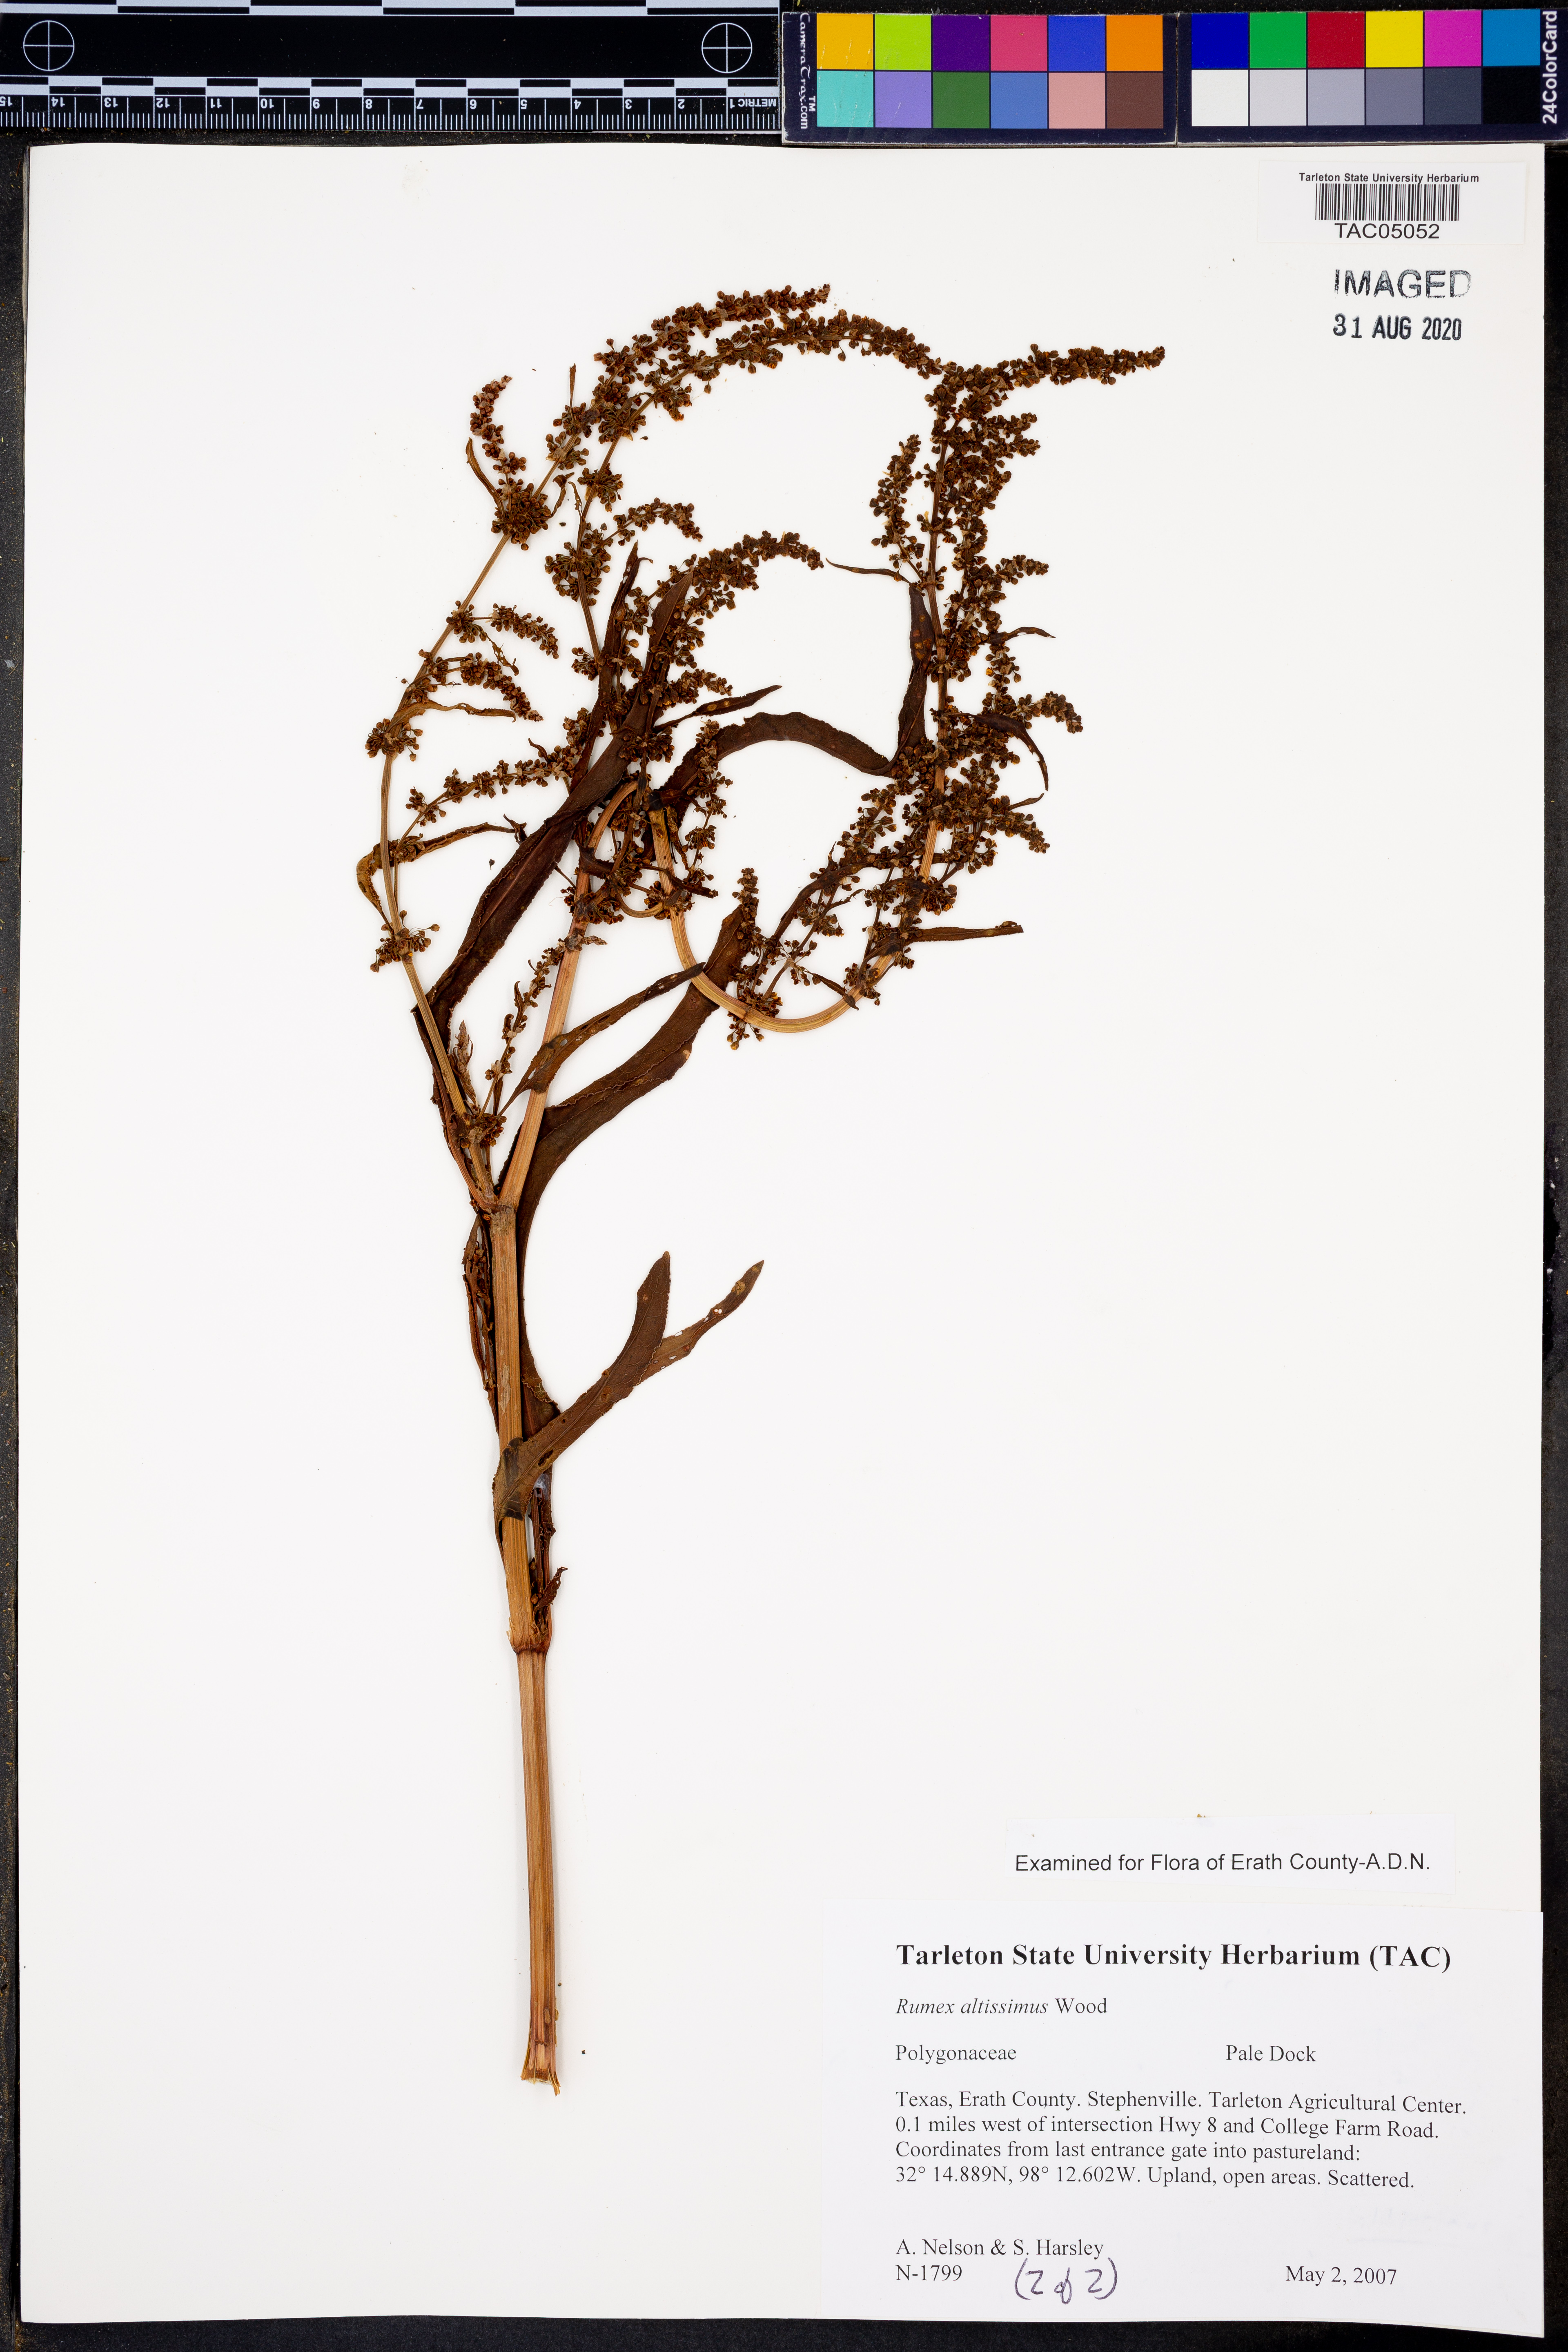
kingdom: Plantae
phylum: Tracheophyta
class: Magnoliopsida
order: Caryophyllales
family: Polygonaceae
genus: Rumex
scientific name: Rumex altissimus
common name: Smooth dock
